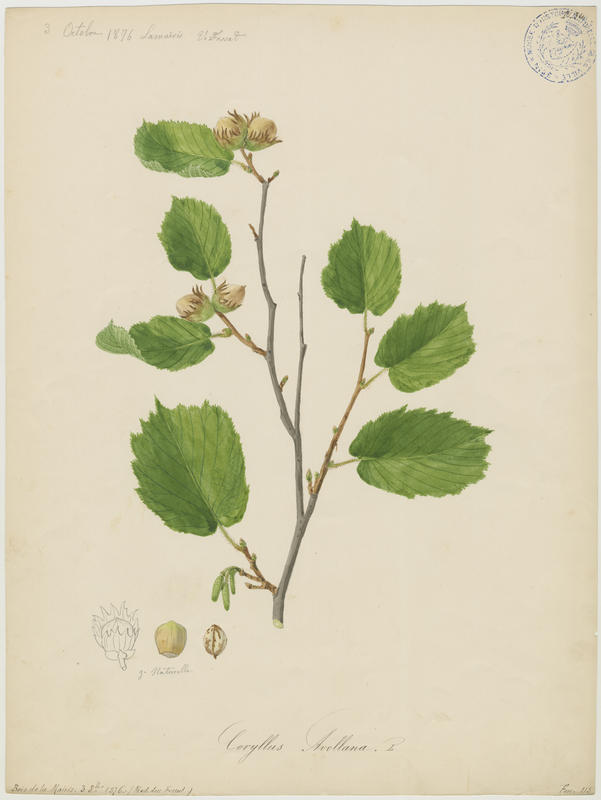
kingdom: Plantae
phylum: Tracheophyta
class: Magnoliopsida
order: Fagales
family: Betulaceae
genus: Corylus
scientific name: Corylus avellana
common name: European hazel
